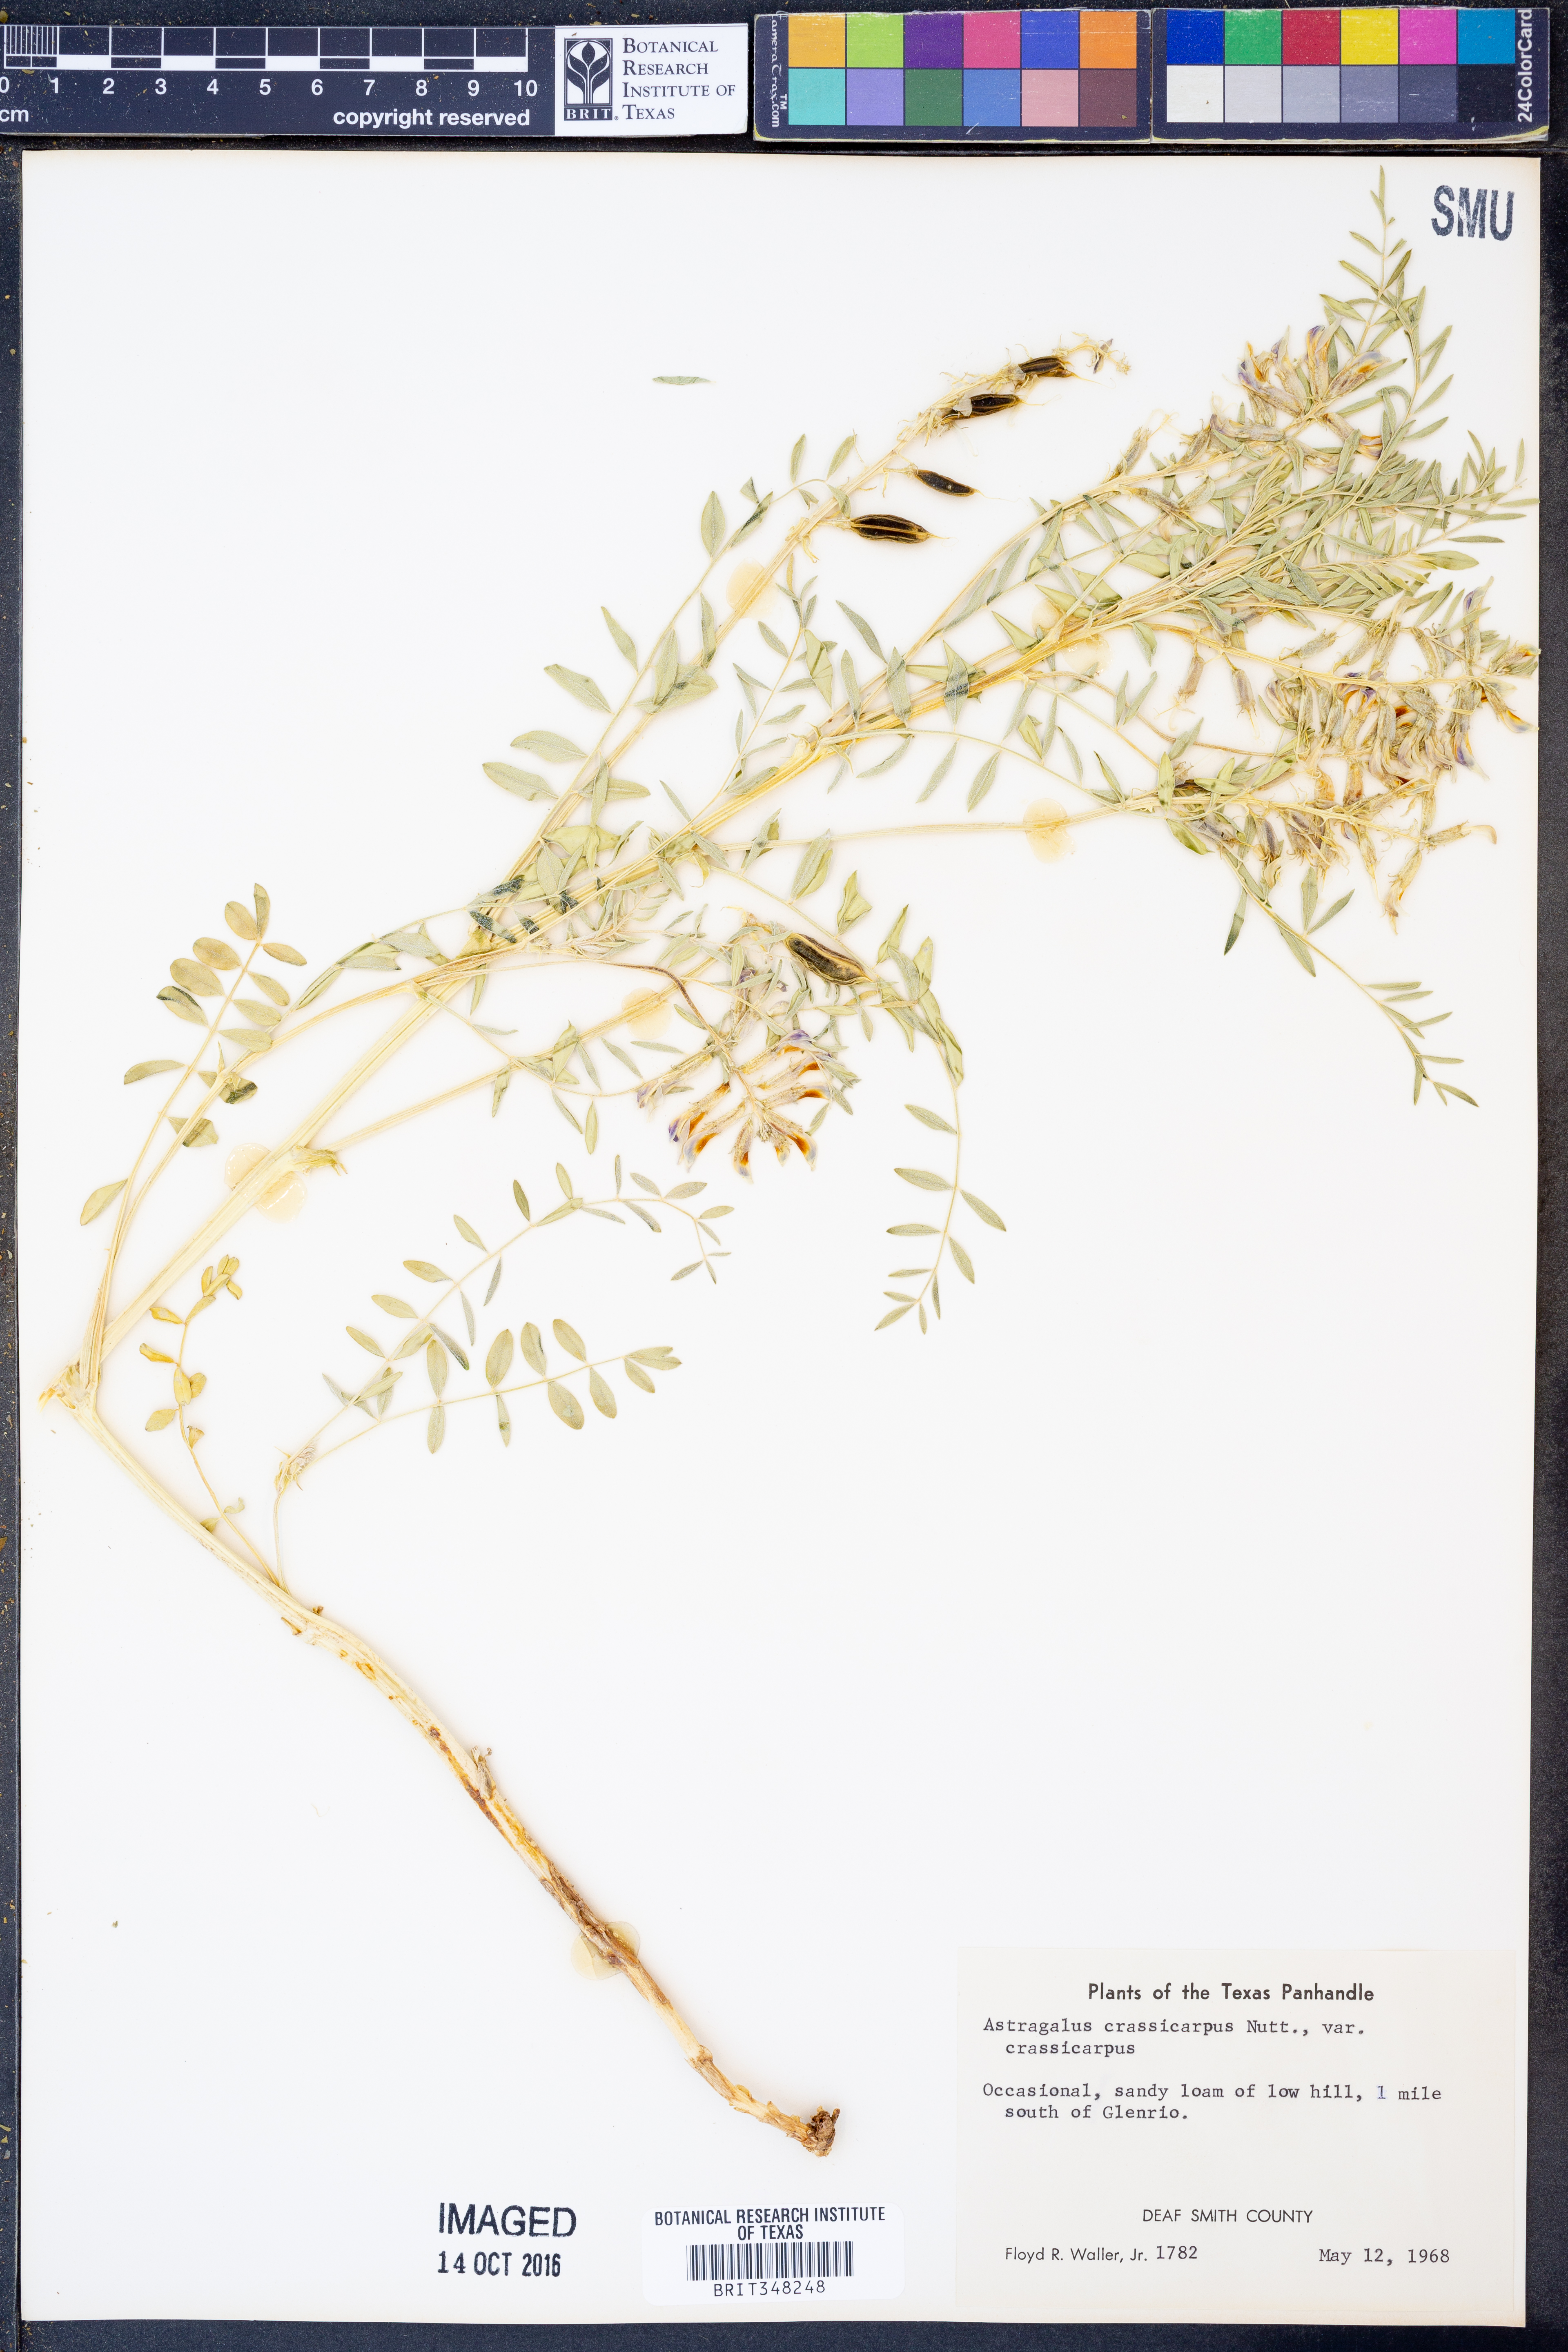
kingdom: Plantae
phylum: Tracheophyta
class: Magnoliopsida
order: Fabales
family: Fabaceae
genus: Astragalus
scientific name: Astragalus crassicarpus
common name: Ground-plum milk-vetch
